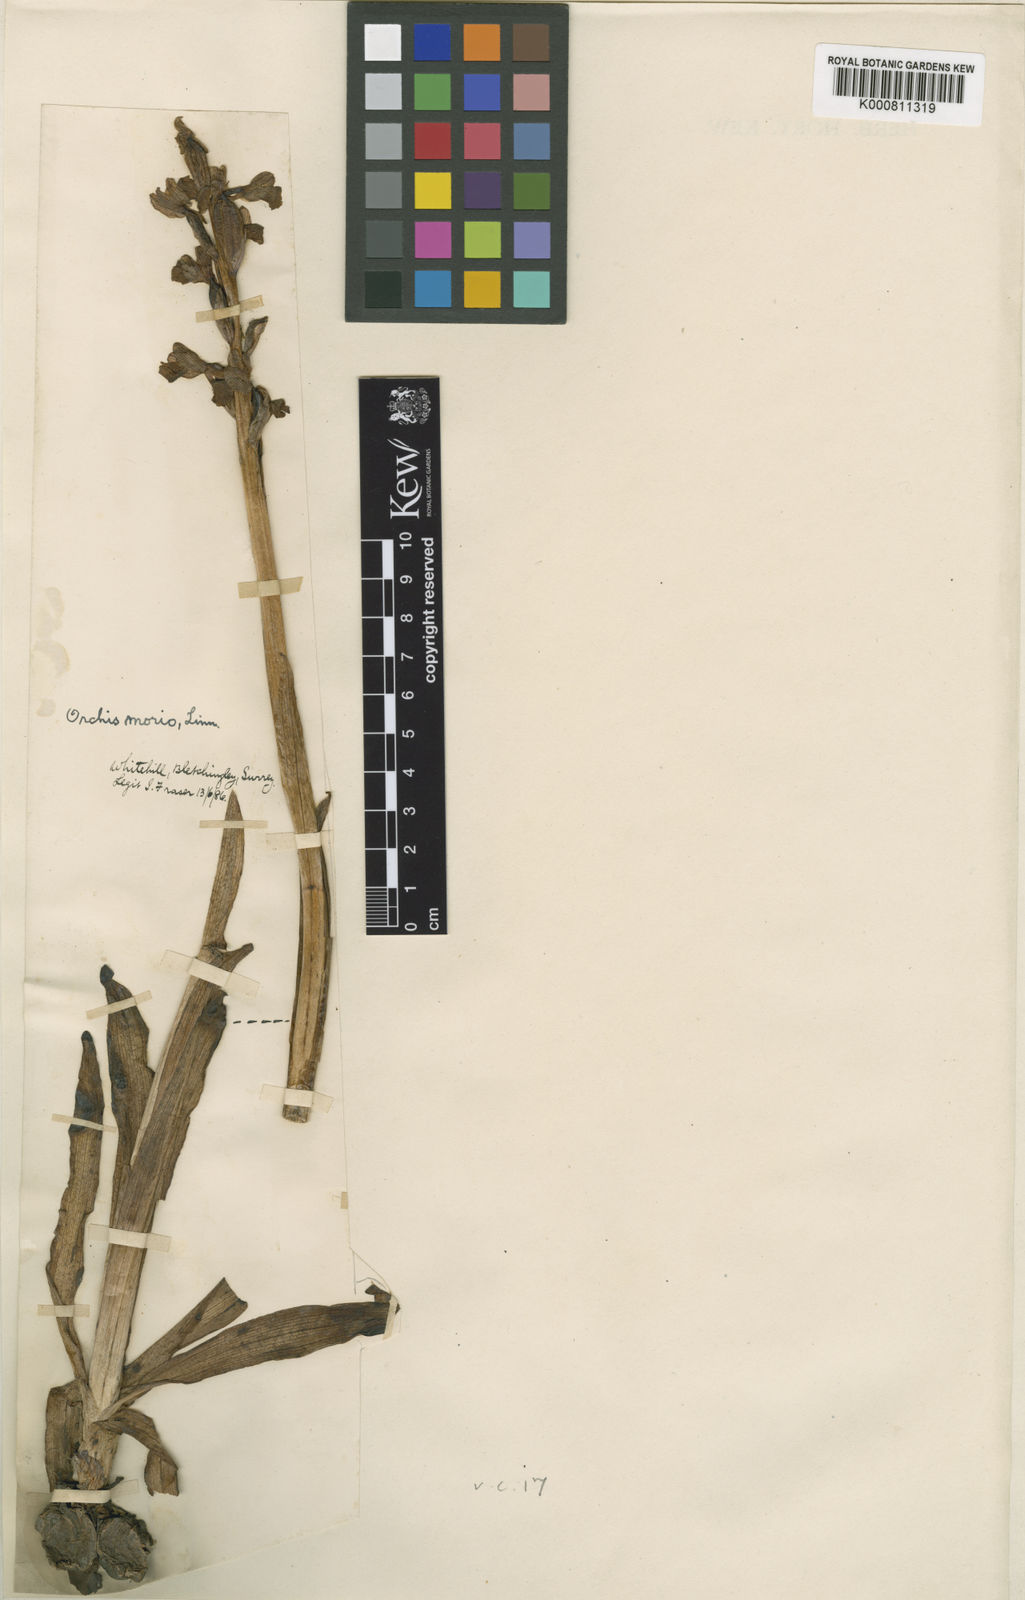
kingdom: Plantae
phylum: Tracheophyta
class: Liliopsida
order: Asparagales
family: Orchidaceae
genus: Anacamptis
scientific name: Anacamptis morio
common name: Green-winged orchid
